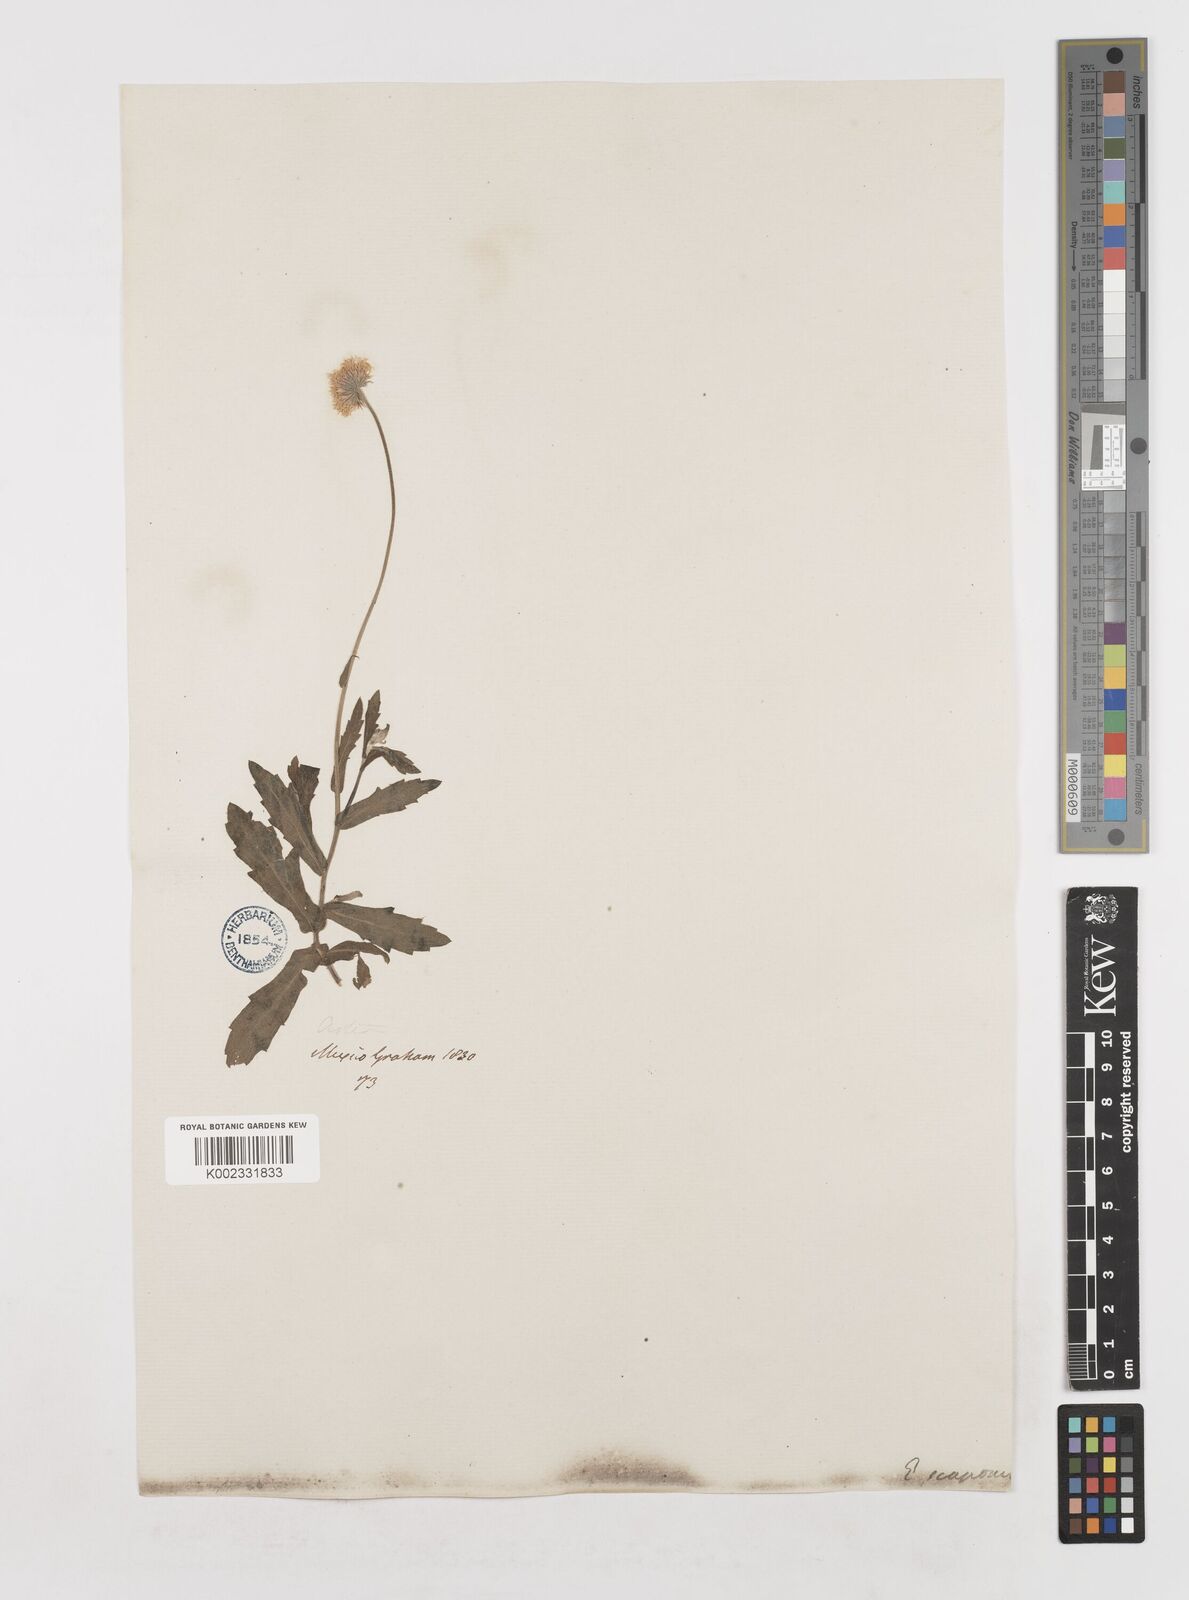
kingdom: Plantae
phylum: Tracheophyta
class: Magnoliopsida
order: Asterales
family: Asteraceae
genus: Erigeron
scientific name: Erigeron longipes
